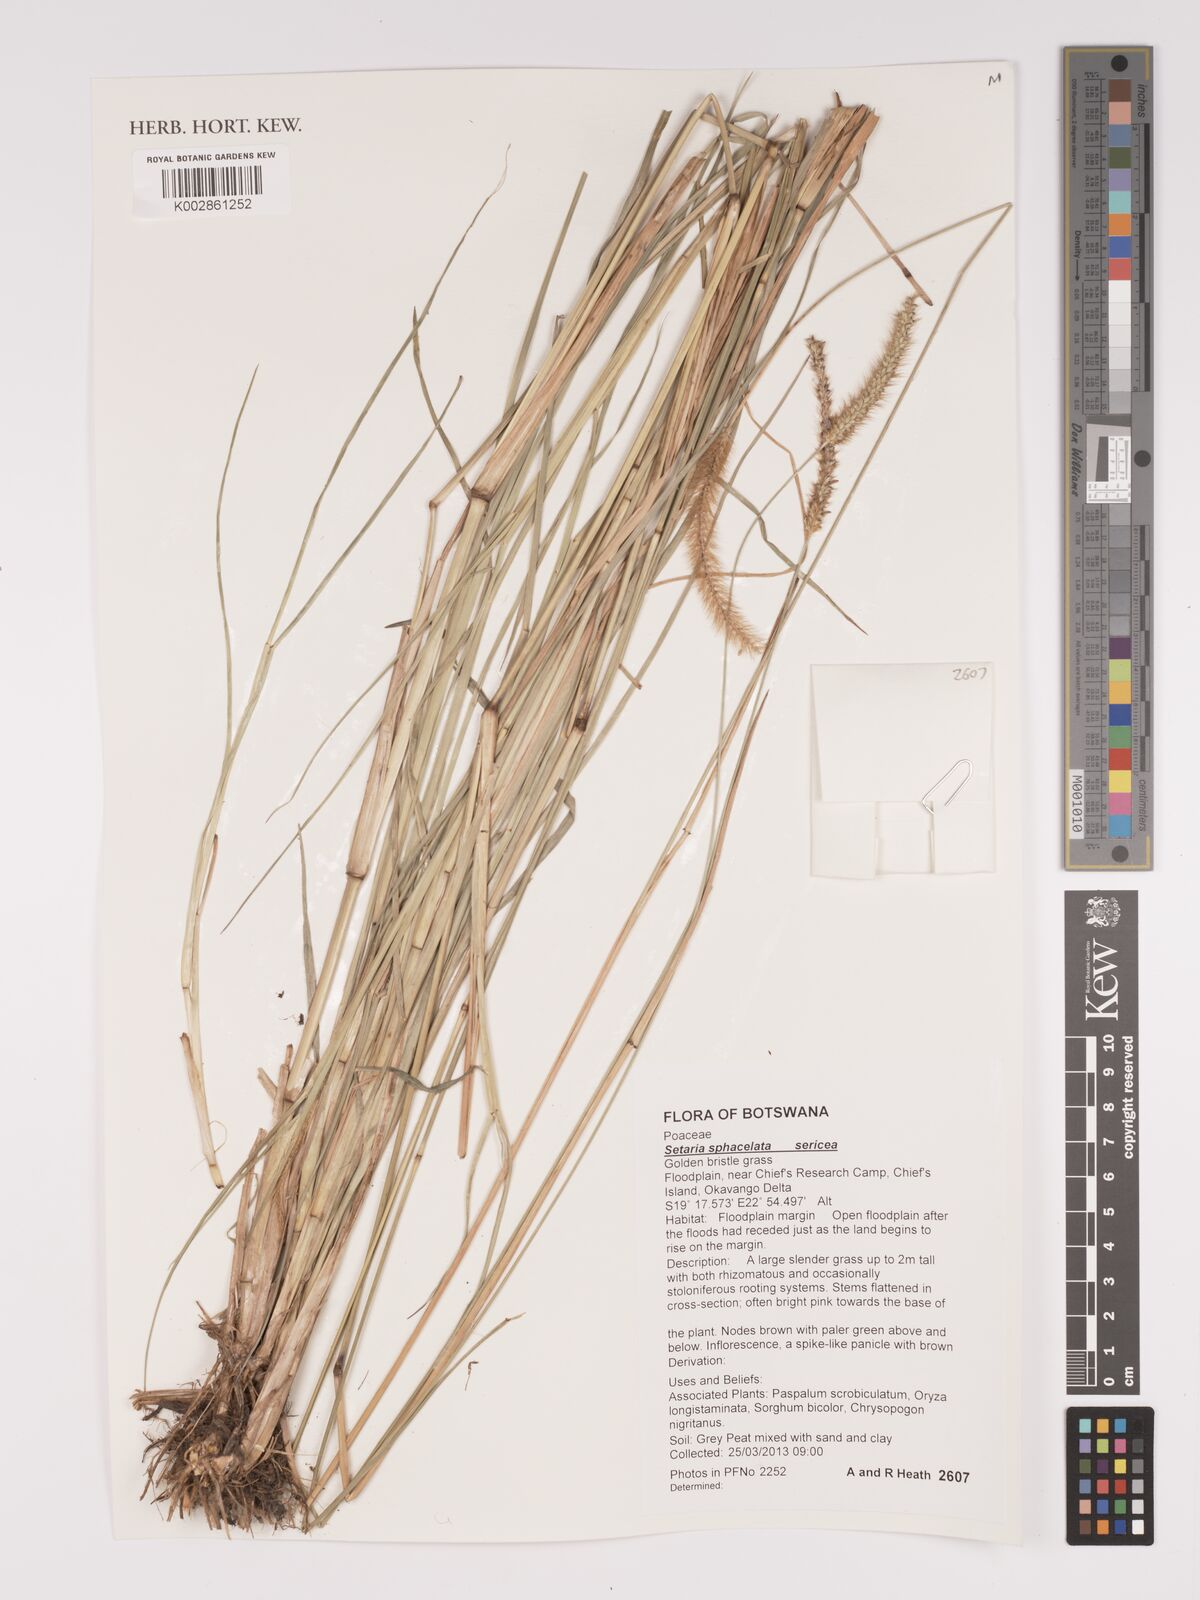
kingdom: Plantae
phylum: Tracheophyta
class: Liliopsida
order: Poales
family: Poaceae
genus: Setaria
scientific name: Setaria sphacelata
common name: African bristlegrass
